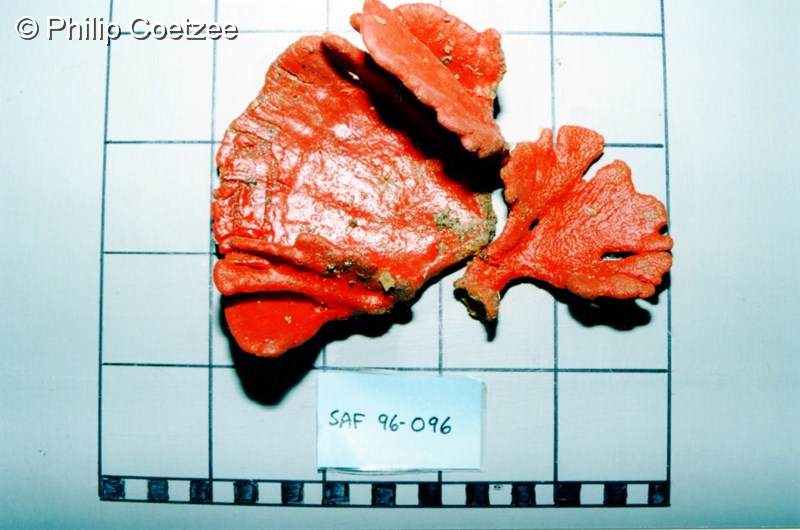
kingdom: Animalia
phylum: Porifera
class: Demospongiae
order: Poecilosclerida
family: Microcionidae
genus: Echinoclathria
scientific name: Echinoclathria dichotoma
